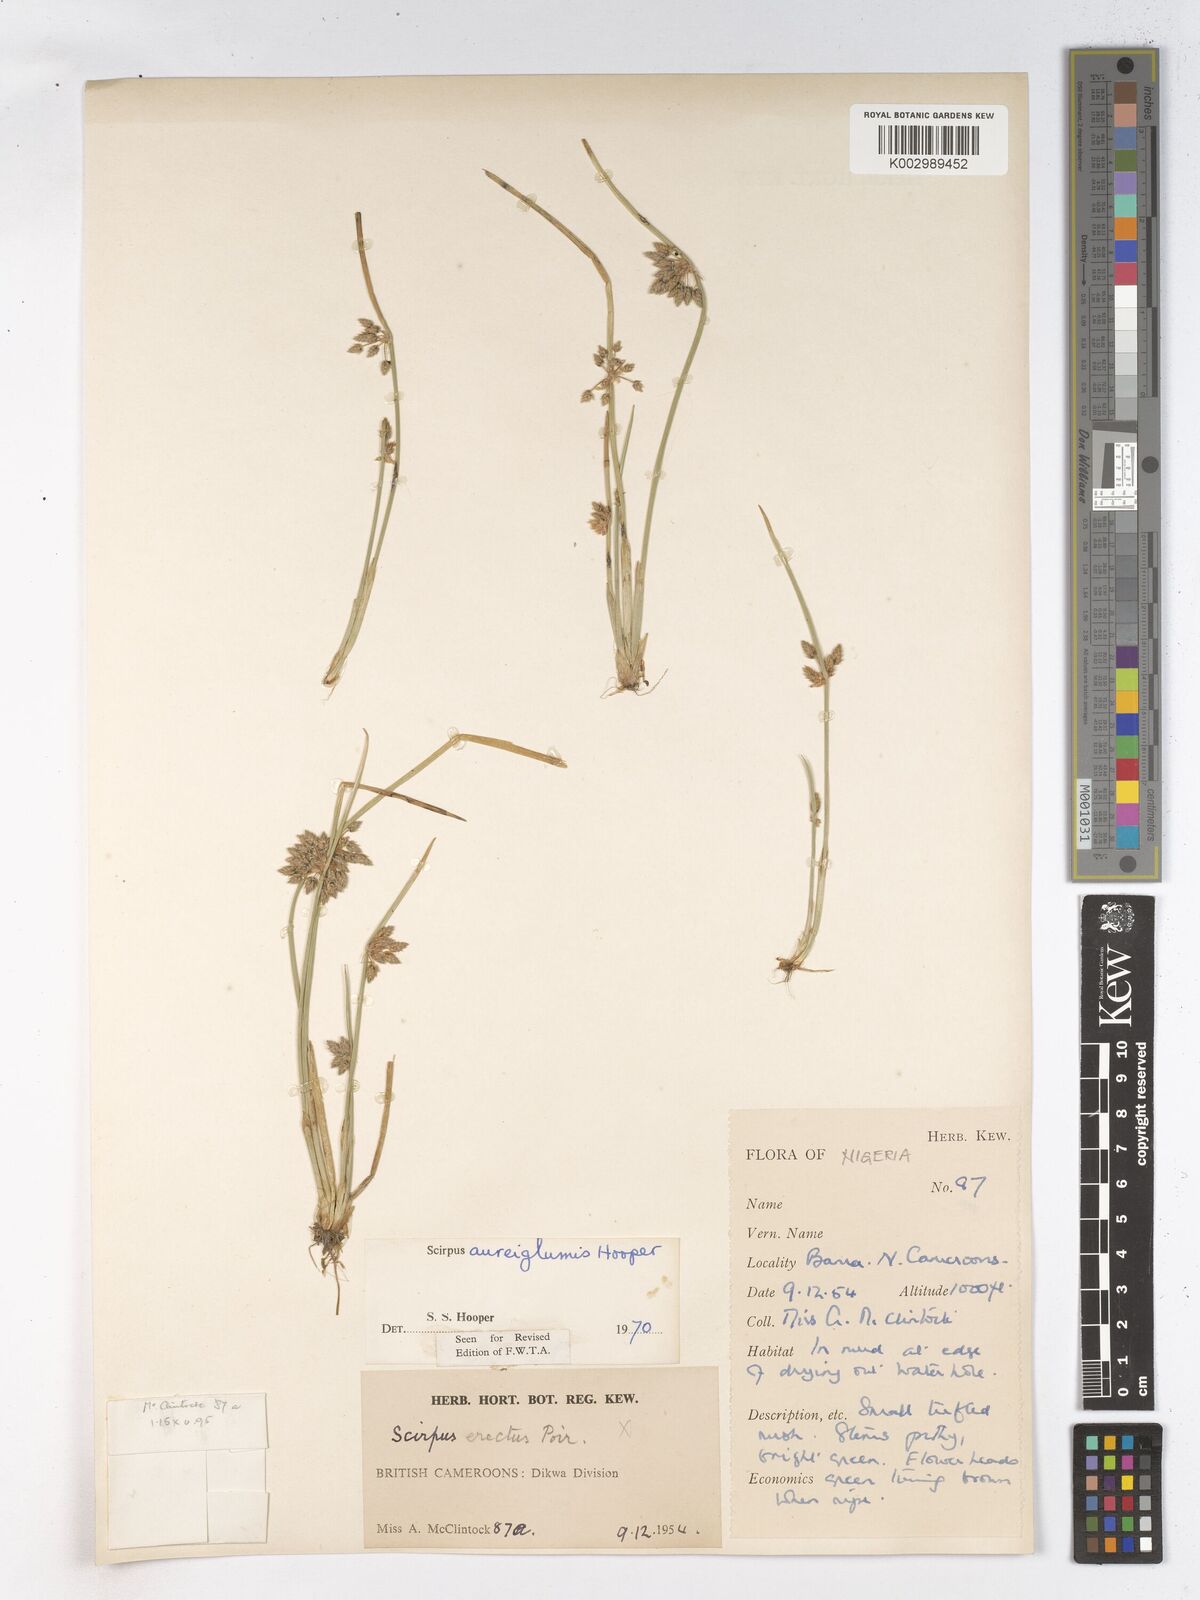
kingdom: Plantae
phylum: Tracheophyta
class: Liliopsida
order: Poales
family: Cyperaceae
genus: Schoenoplectus
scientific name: Schoenoplectus
